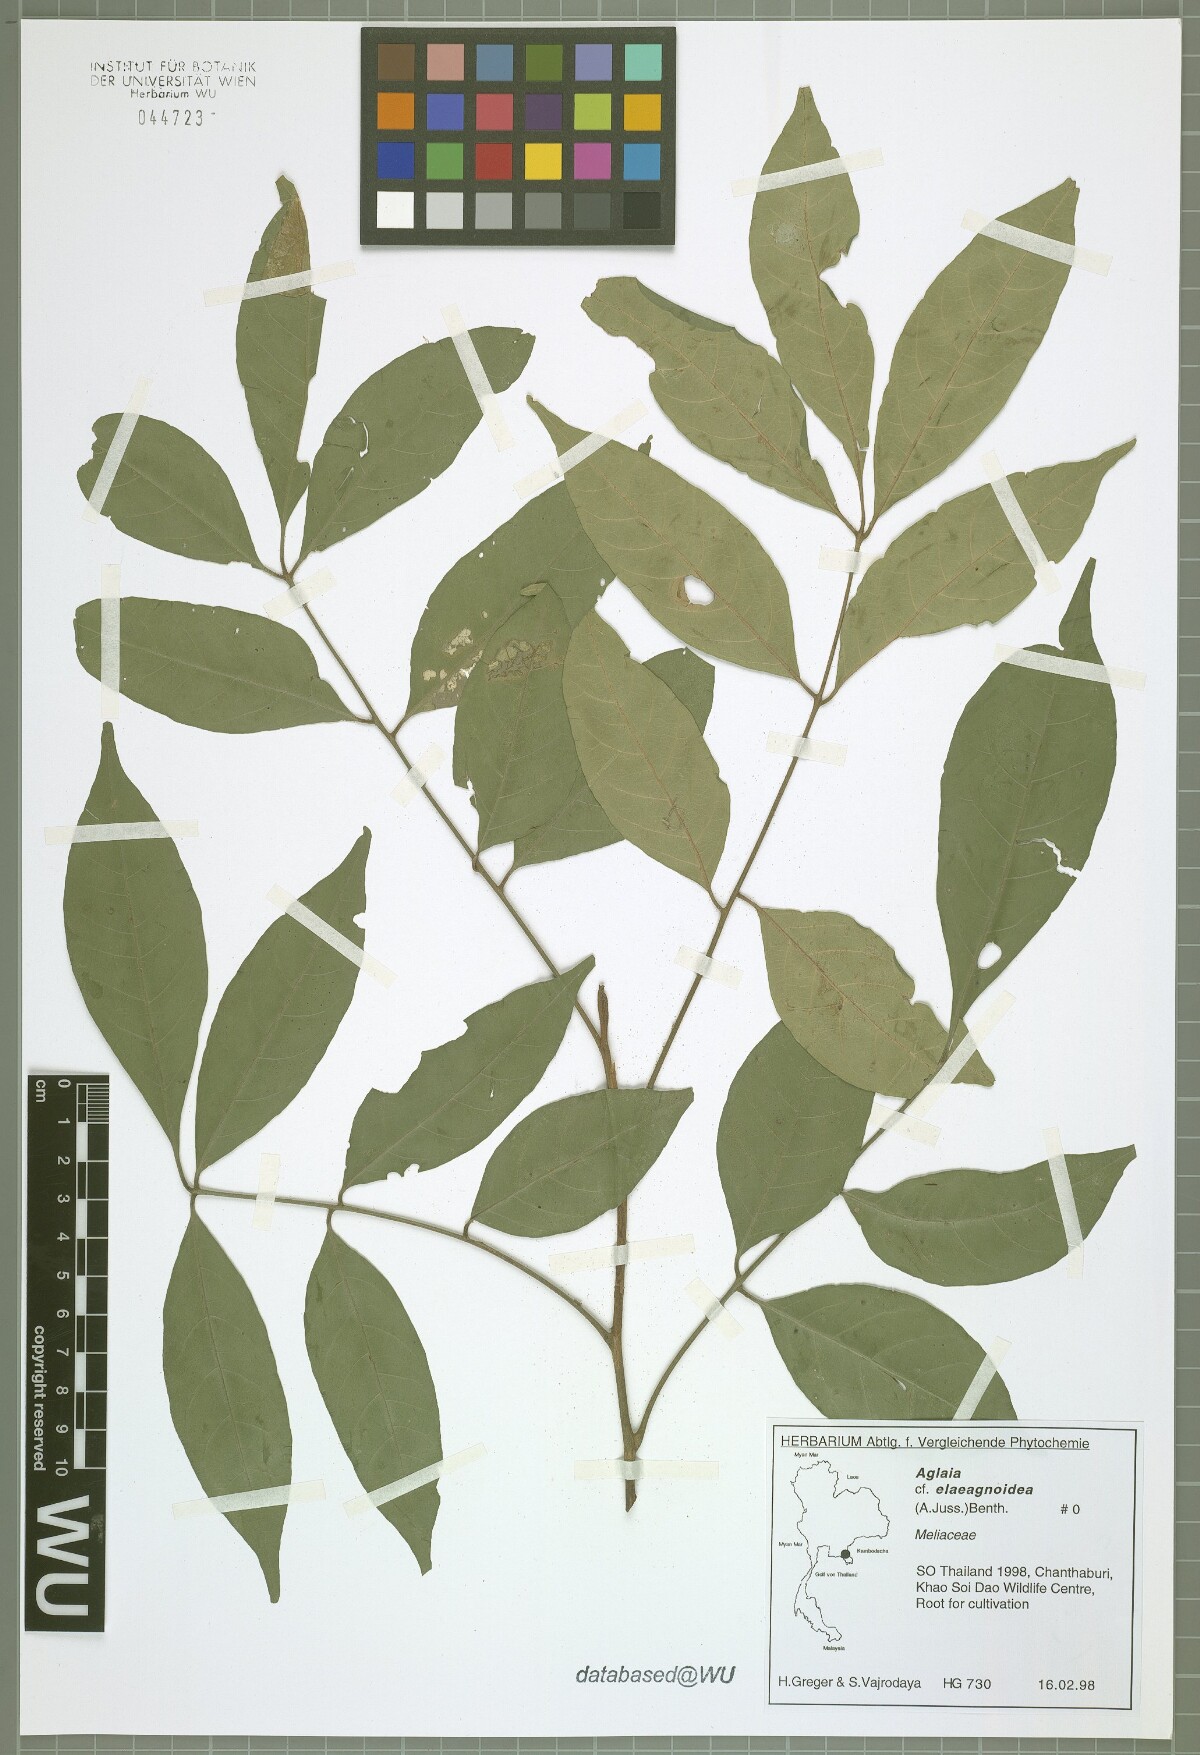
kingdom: Plantae
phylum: Tracheophyta
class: Magnoliopsida
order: Sapindales
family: Meliaceae
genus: Aglaia
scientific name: Aglaia elaeagnoidea
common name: Droopyleaf
